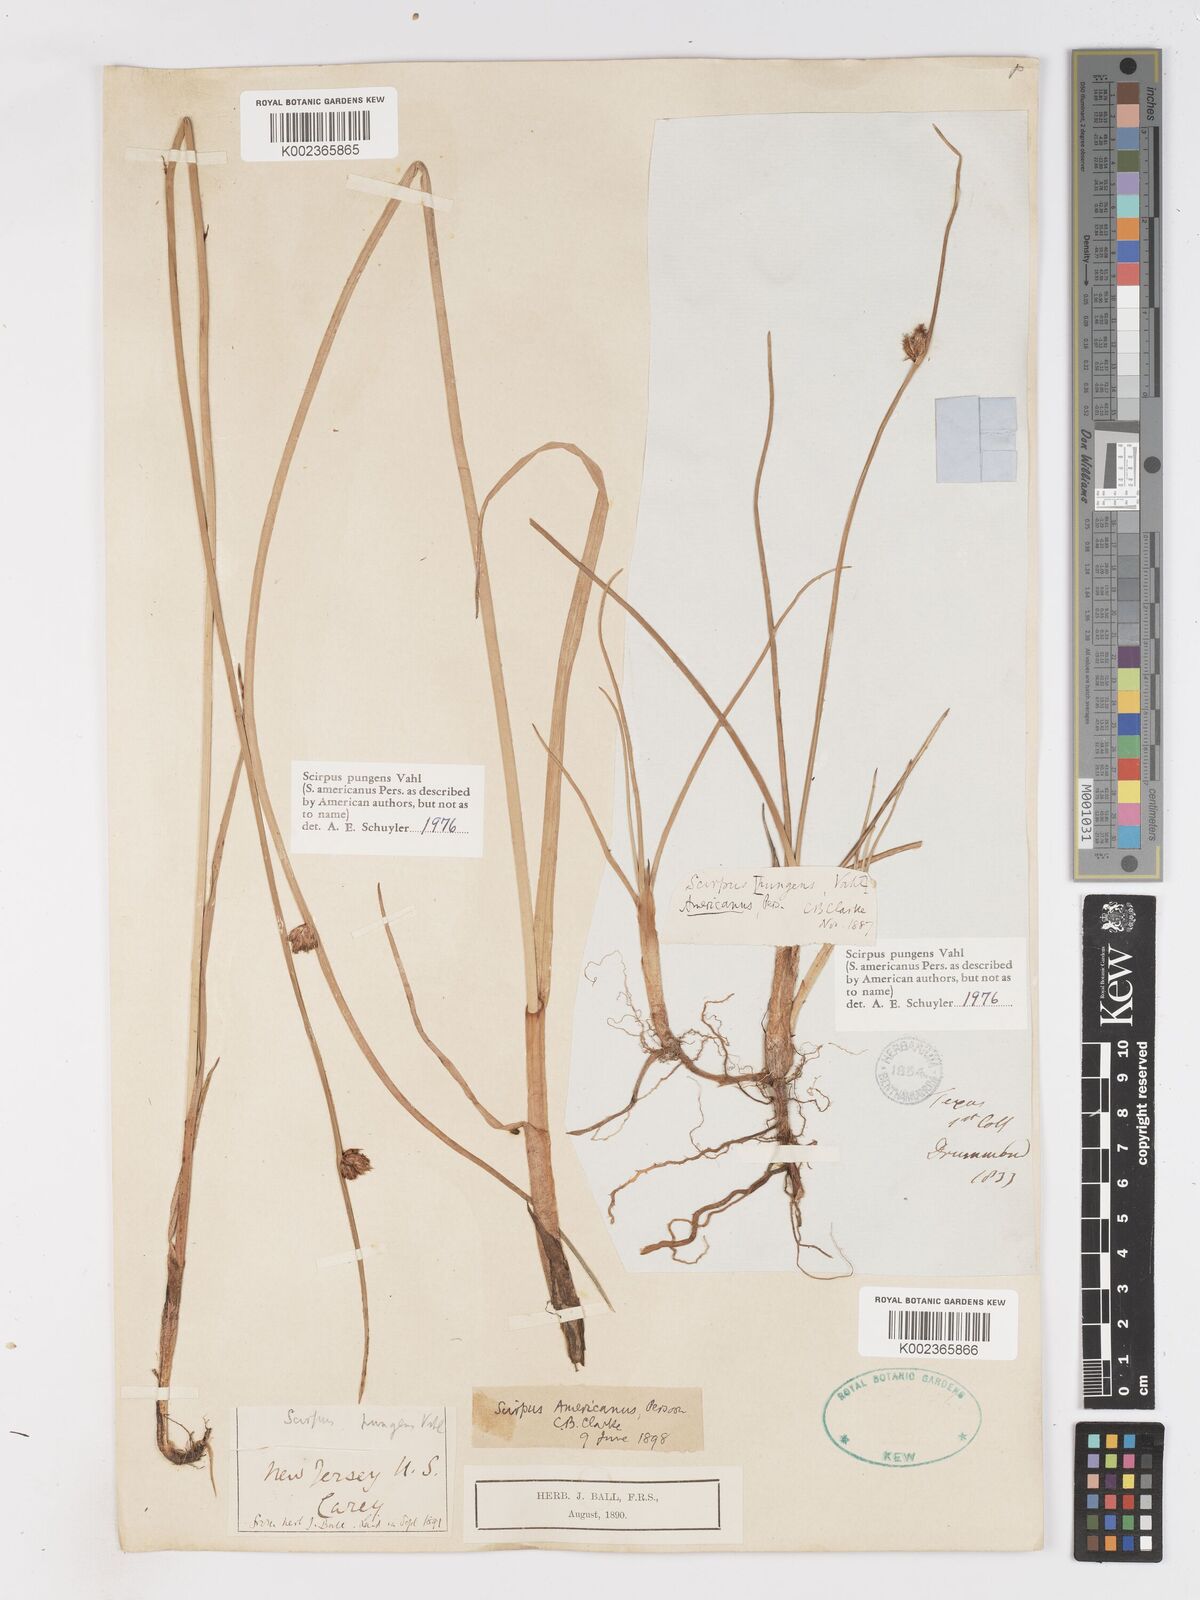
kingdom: Plantae
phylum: Tracheophyta
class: Liliopsida
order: Poales
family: Cyperaceae
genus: Schoenoplectus
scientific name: Schoenoplectus pungens
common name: Sharp club-rush
